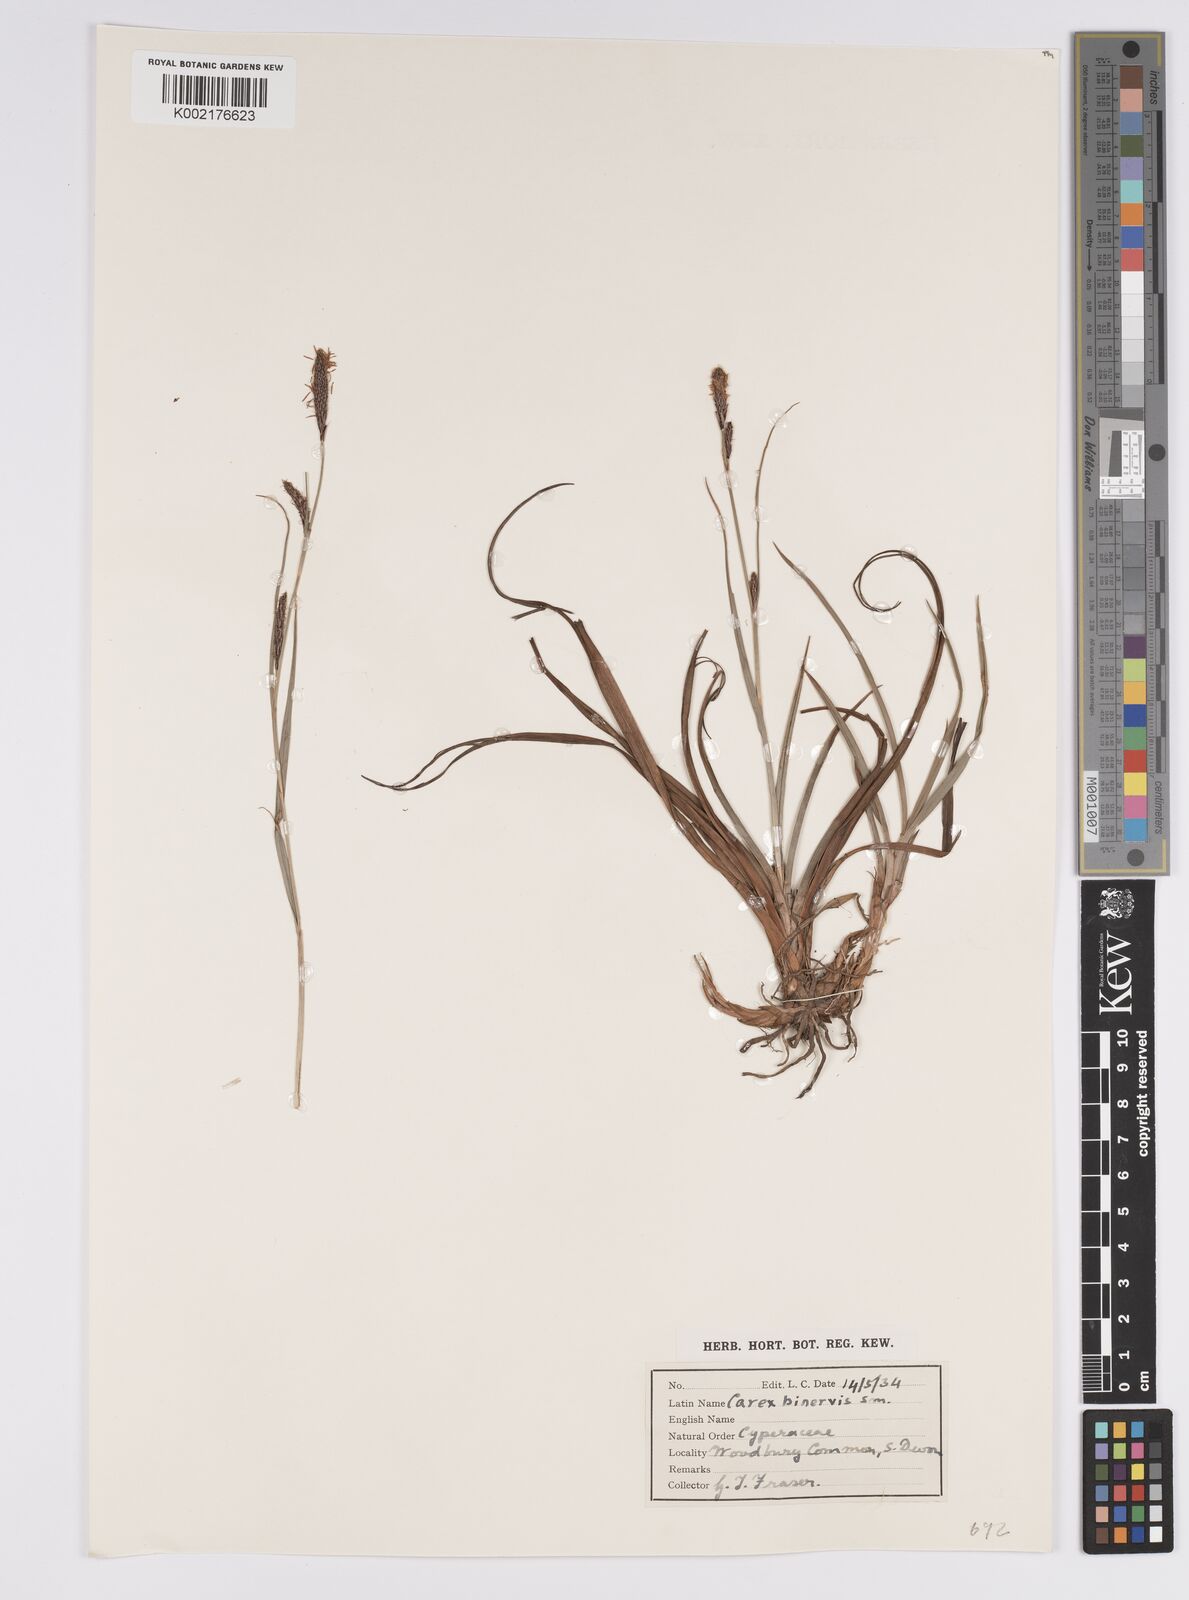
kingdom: Plantae
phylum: Tracheophyta
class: Liliopsida
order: Poales
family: Cyperaceae
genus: Carex
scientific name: Carex binervis
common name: Green-ribbed sedge
